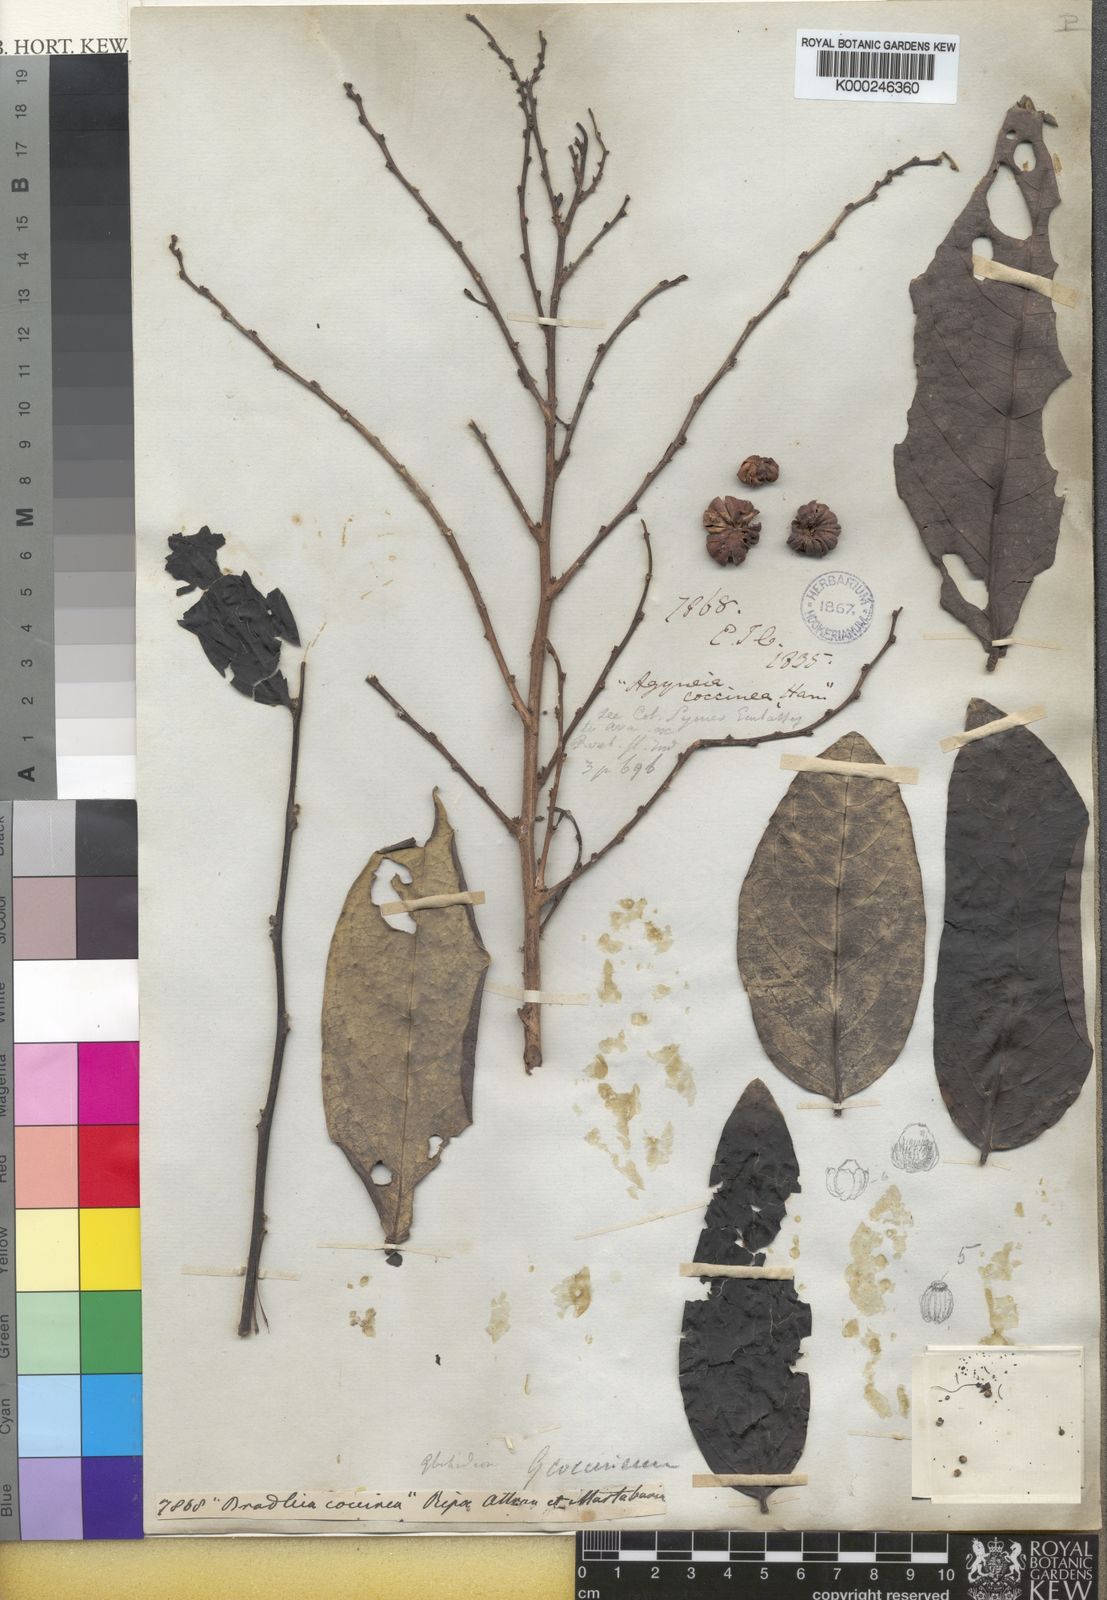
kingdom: Plantae
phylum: Tracheophyta
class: Magnoliopsida
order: Malpighiales
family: Phyllanthaceae
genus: Glochidion
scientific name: Glochidion
